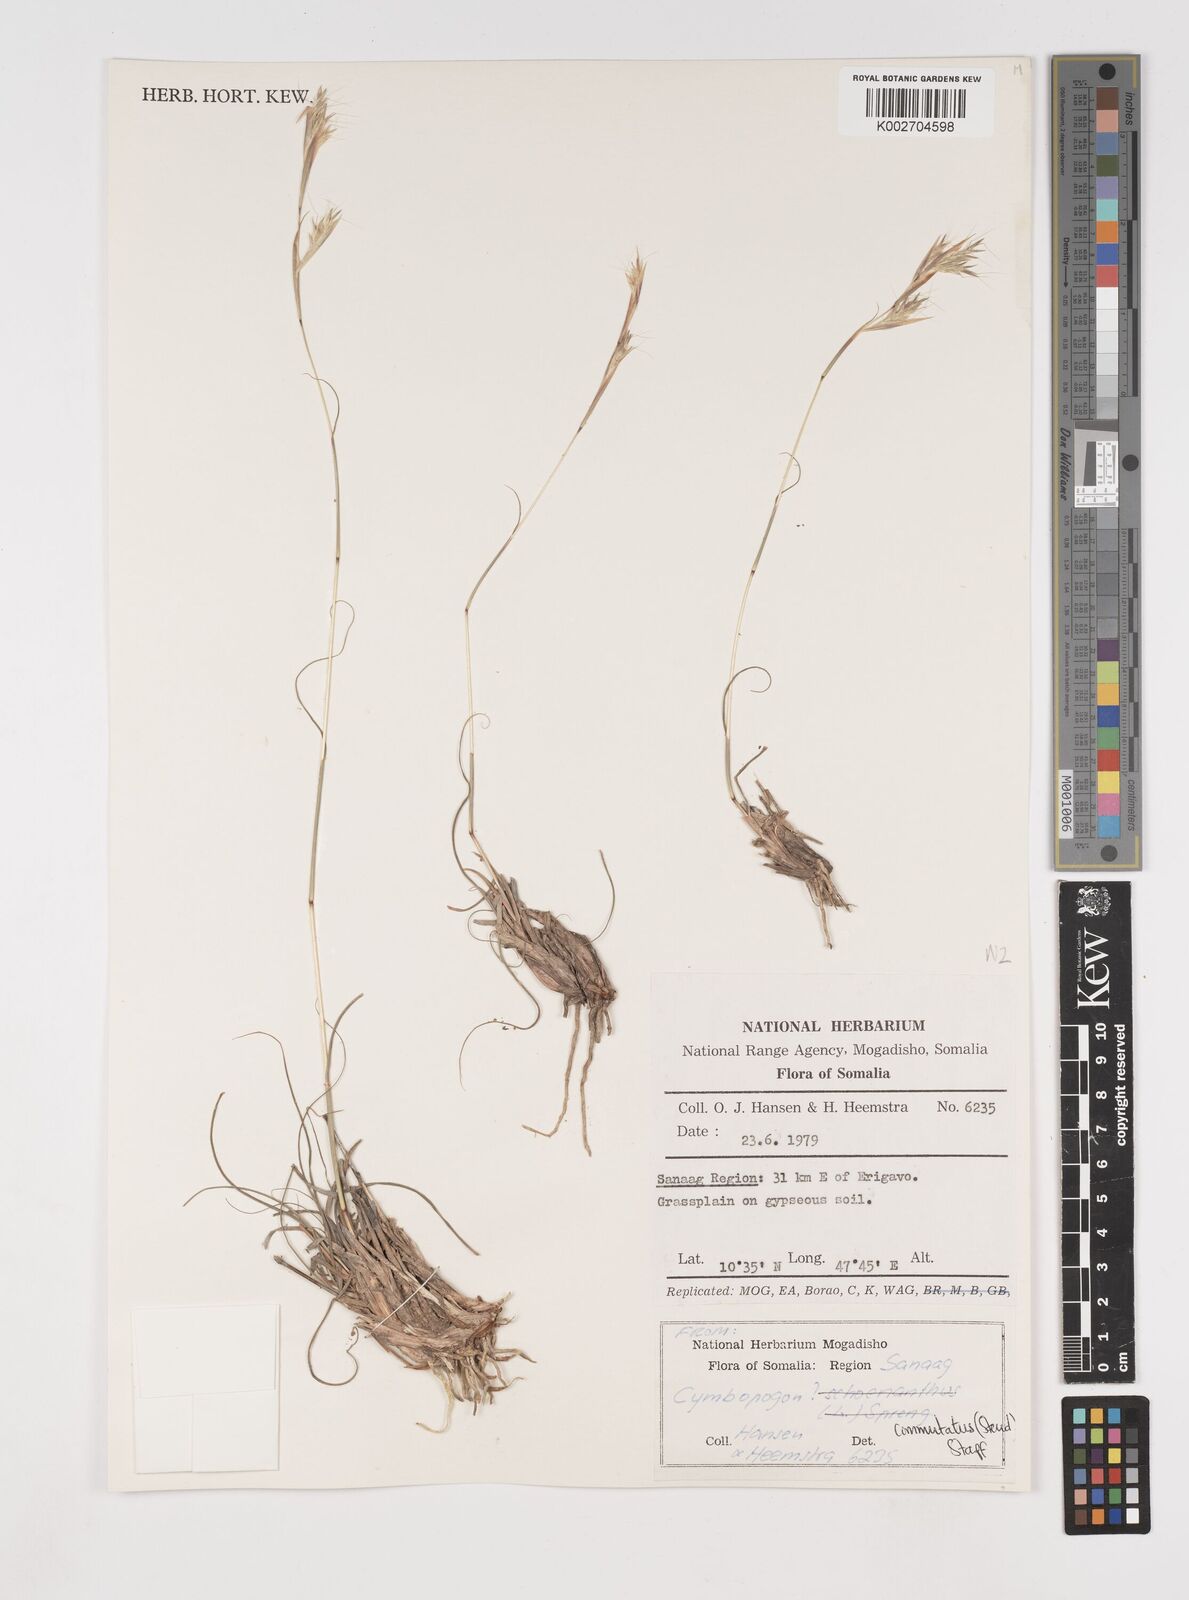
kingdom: Plantae
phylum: Tracheophyta
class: Liliopsida
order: Poales
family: Poaceae
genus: Cymbopogon
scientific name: Cymbopogon commutatus
